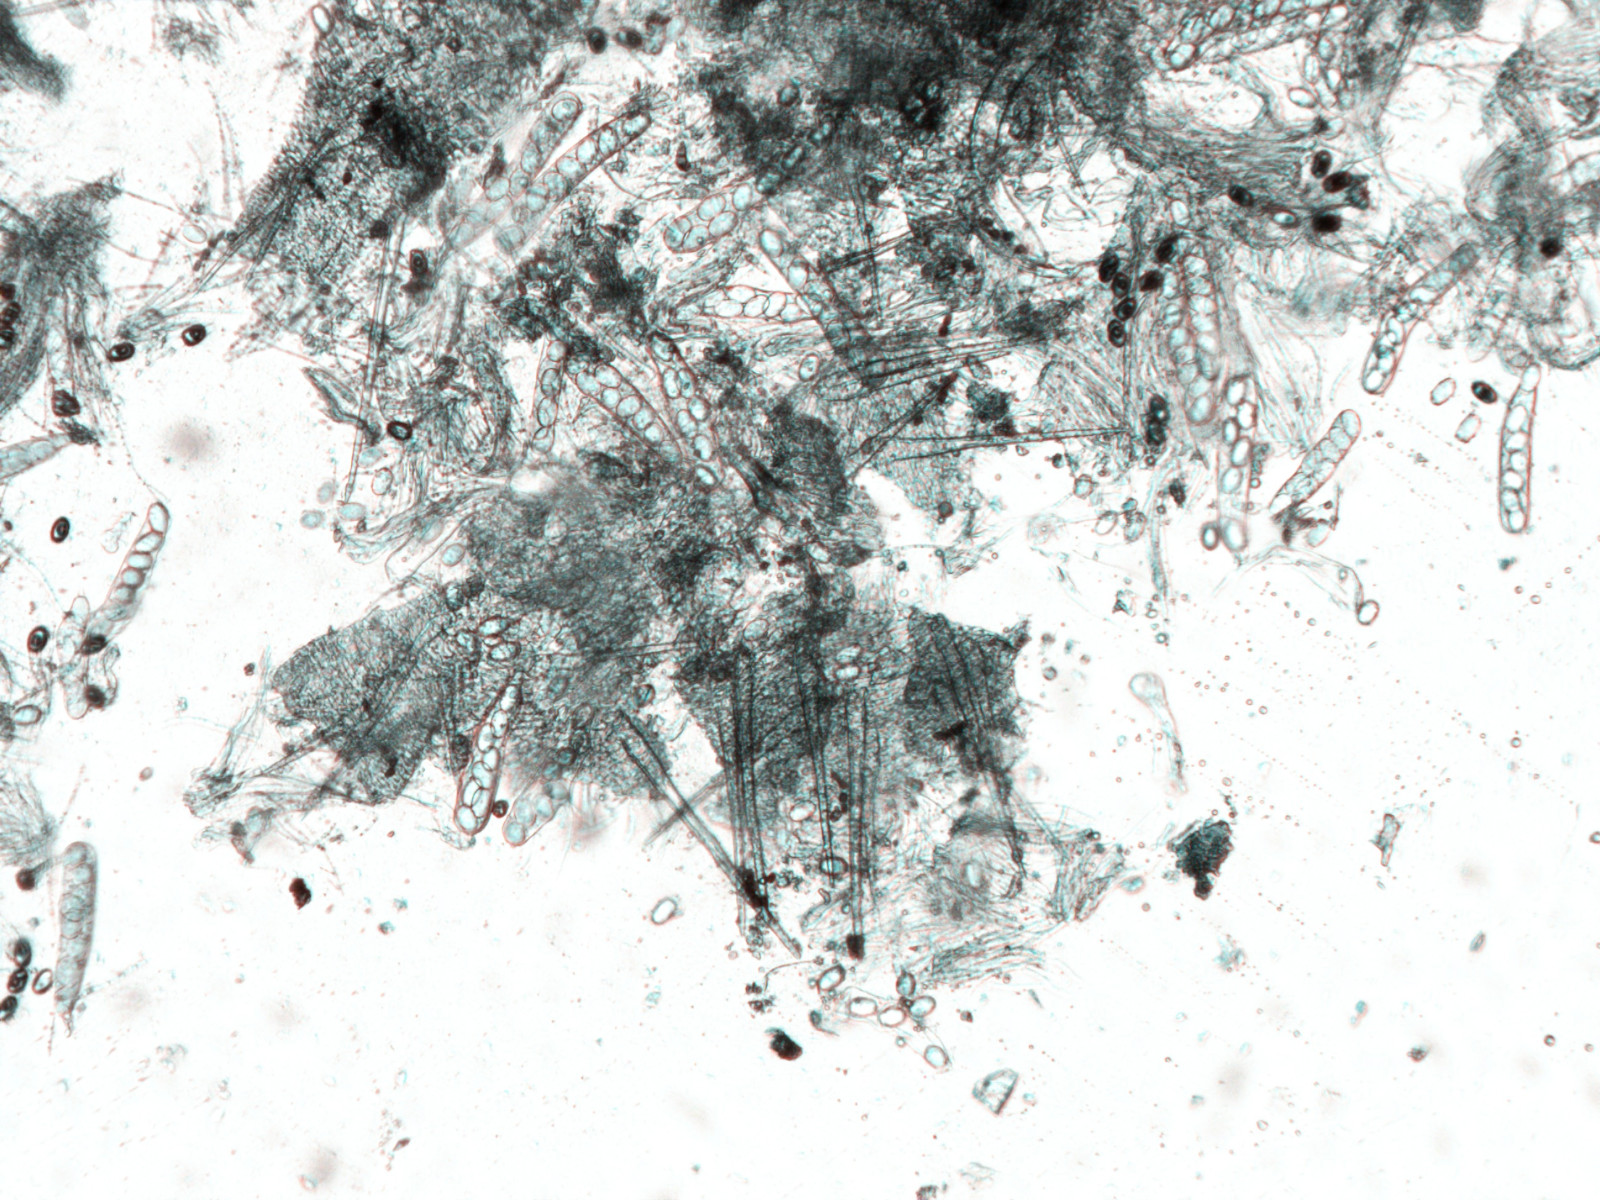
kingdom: Fungi
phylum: Ascomycota
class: Pezizomycetes
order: Pezizales
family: Pyronemataceae
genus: Cheilymenia
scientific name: Cheilymenia fimicola
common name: møg-hårbæger
